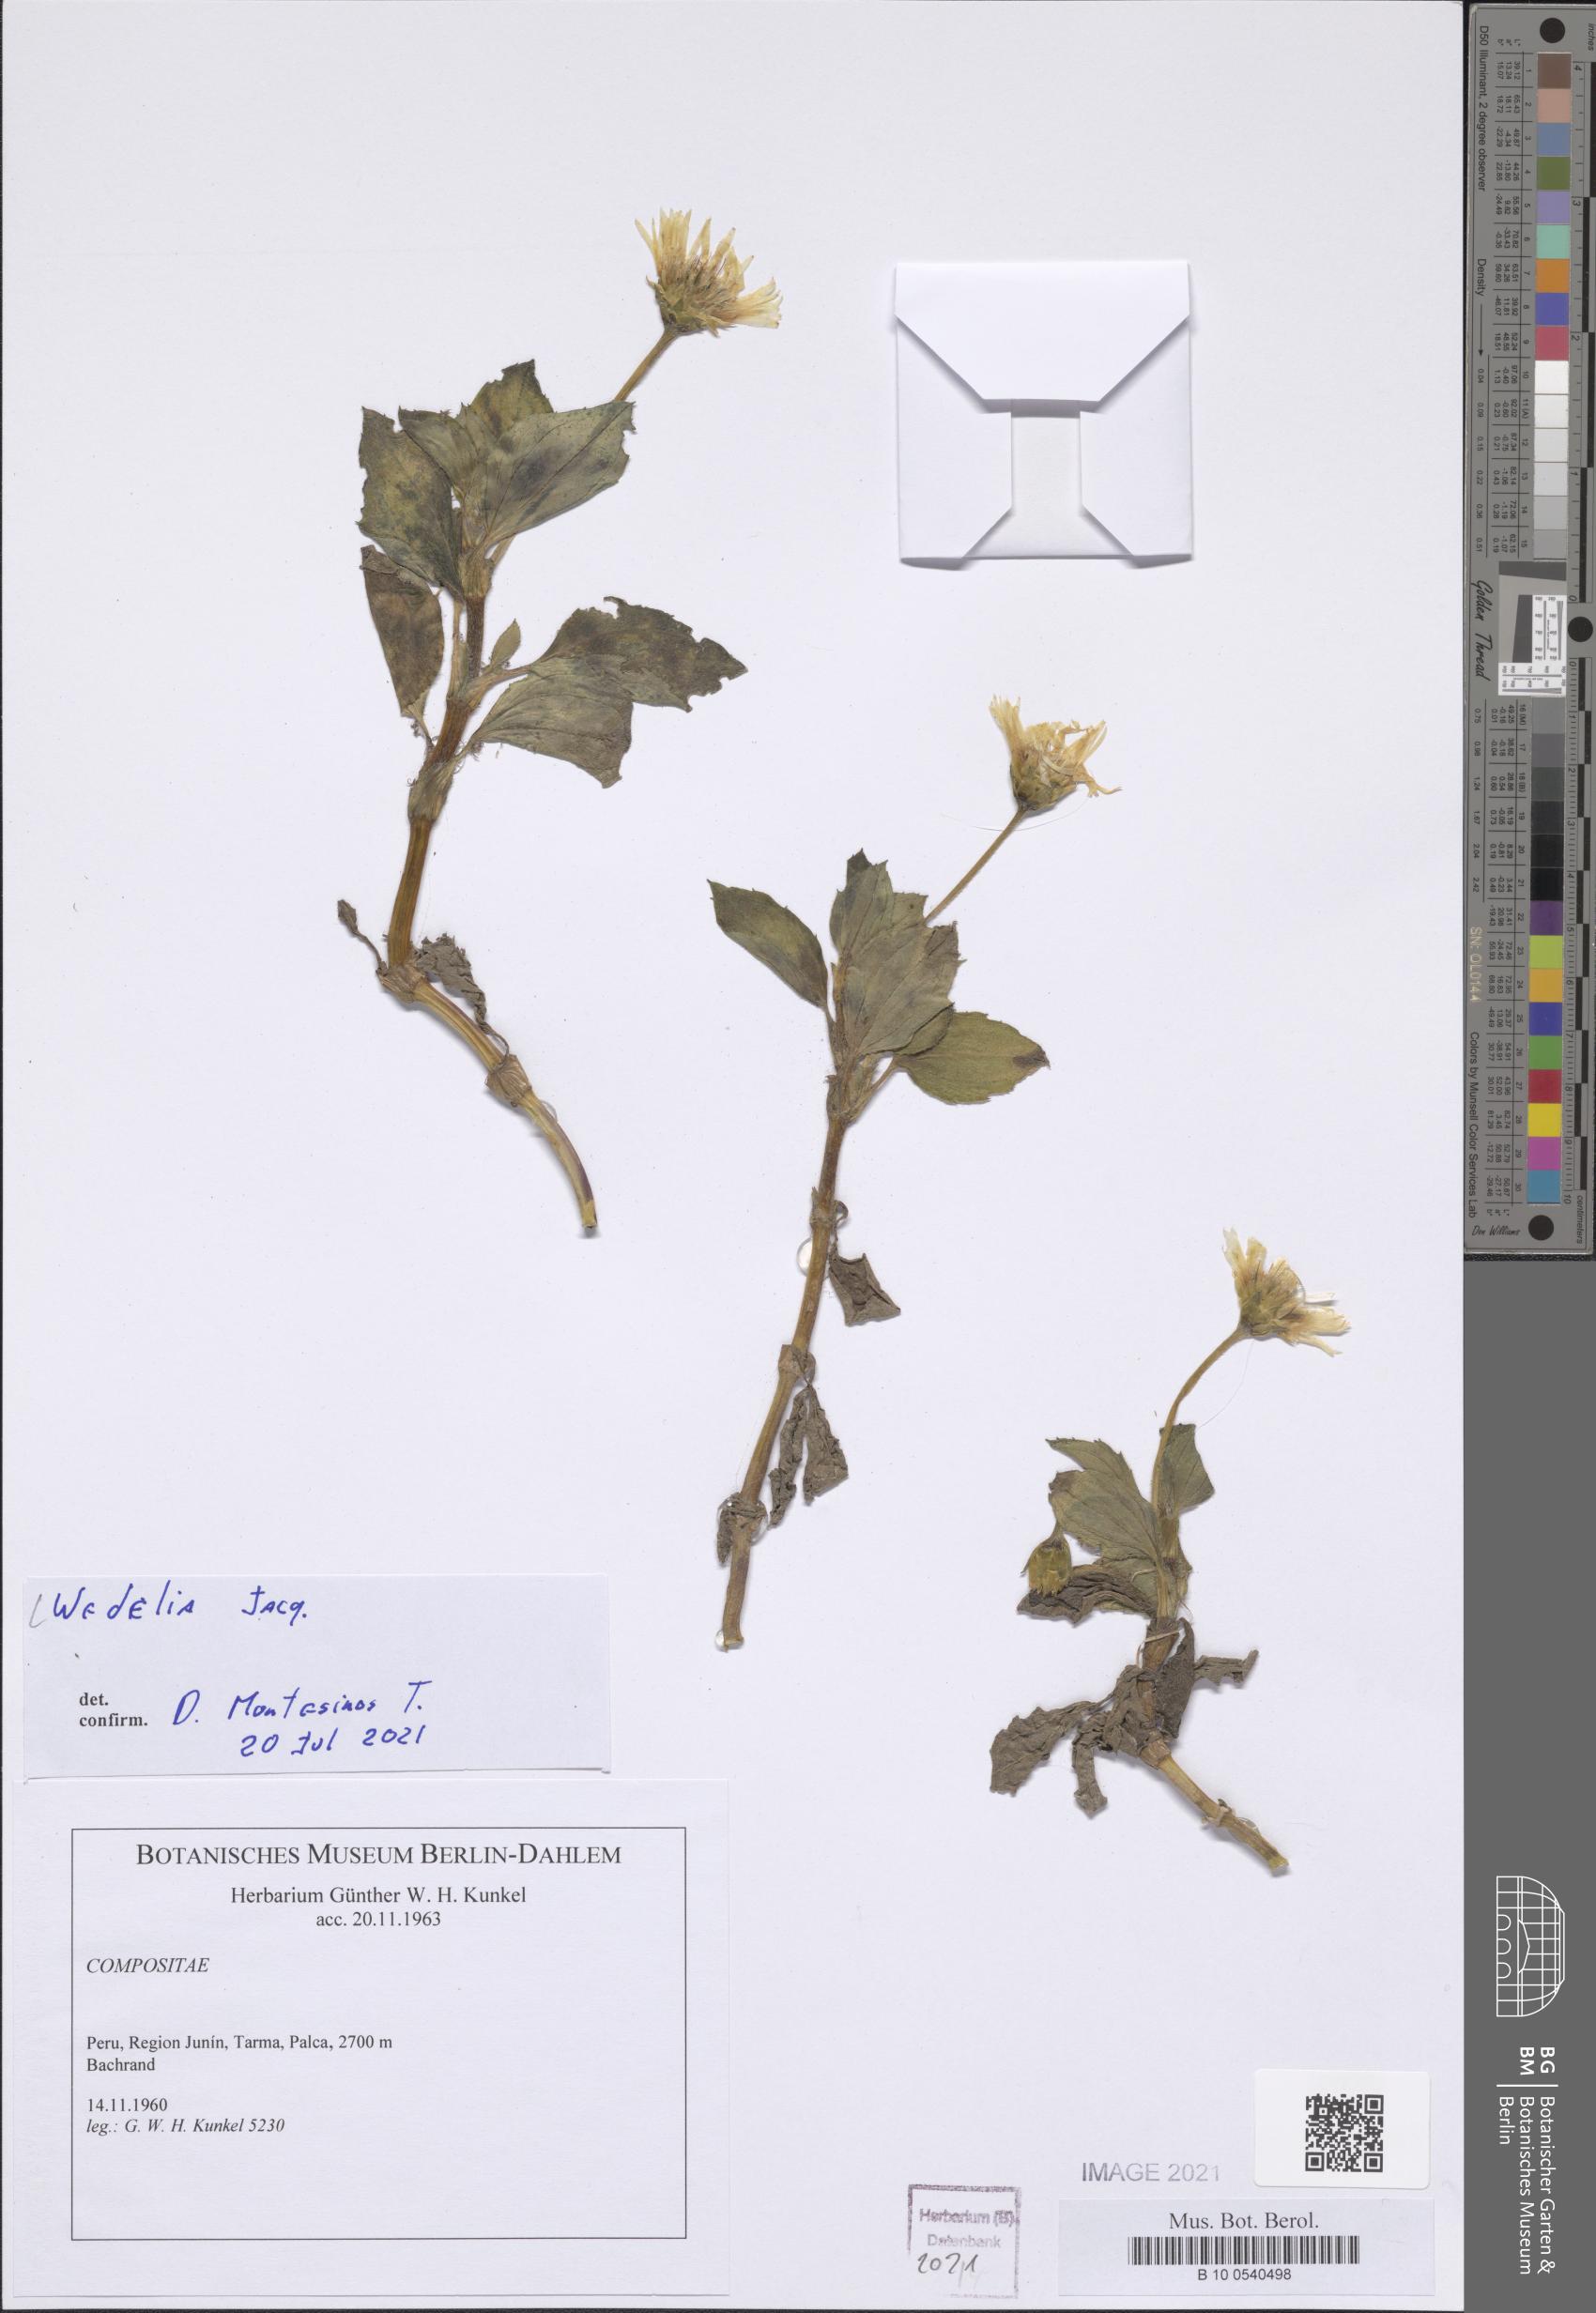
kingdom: Plantae
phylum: Tracheophyta
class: Magnoliopsida
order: Asterales
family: Asteraceae
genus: Wedelia
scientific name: Wedelia
